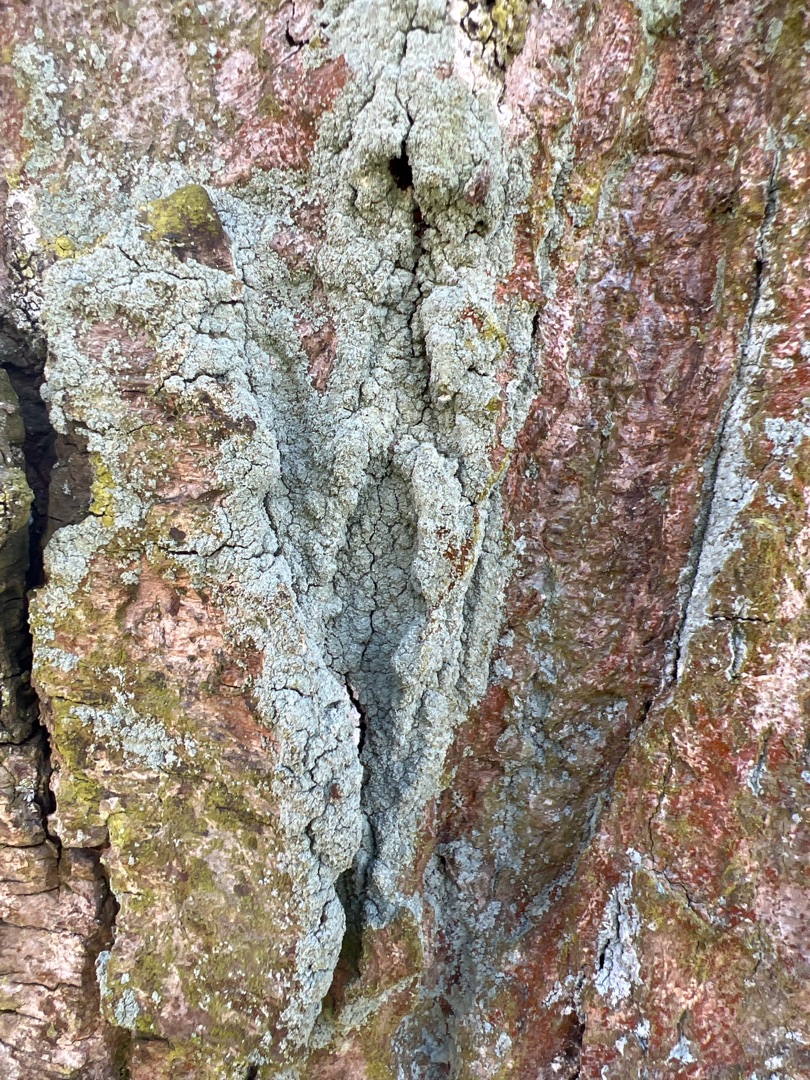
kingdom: Fungi
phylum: Ascomycota
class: Lecanoromycetes
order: Lecanorales
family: Stereocaulaceae
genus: Lepraria
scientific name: Lepraria
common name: Støvlav
